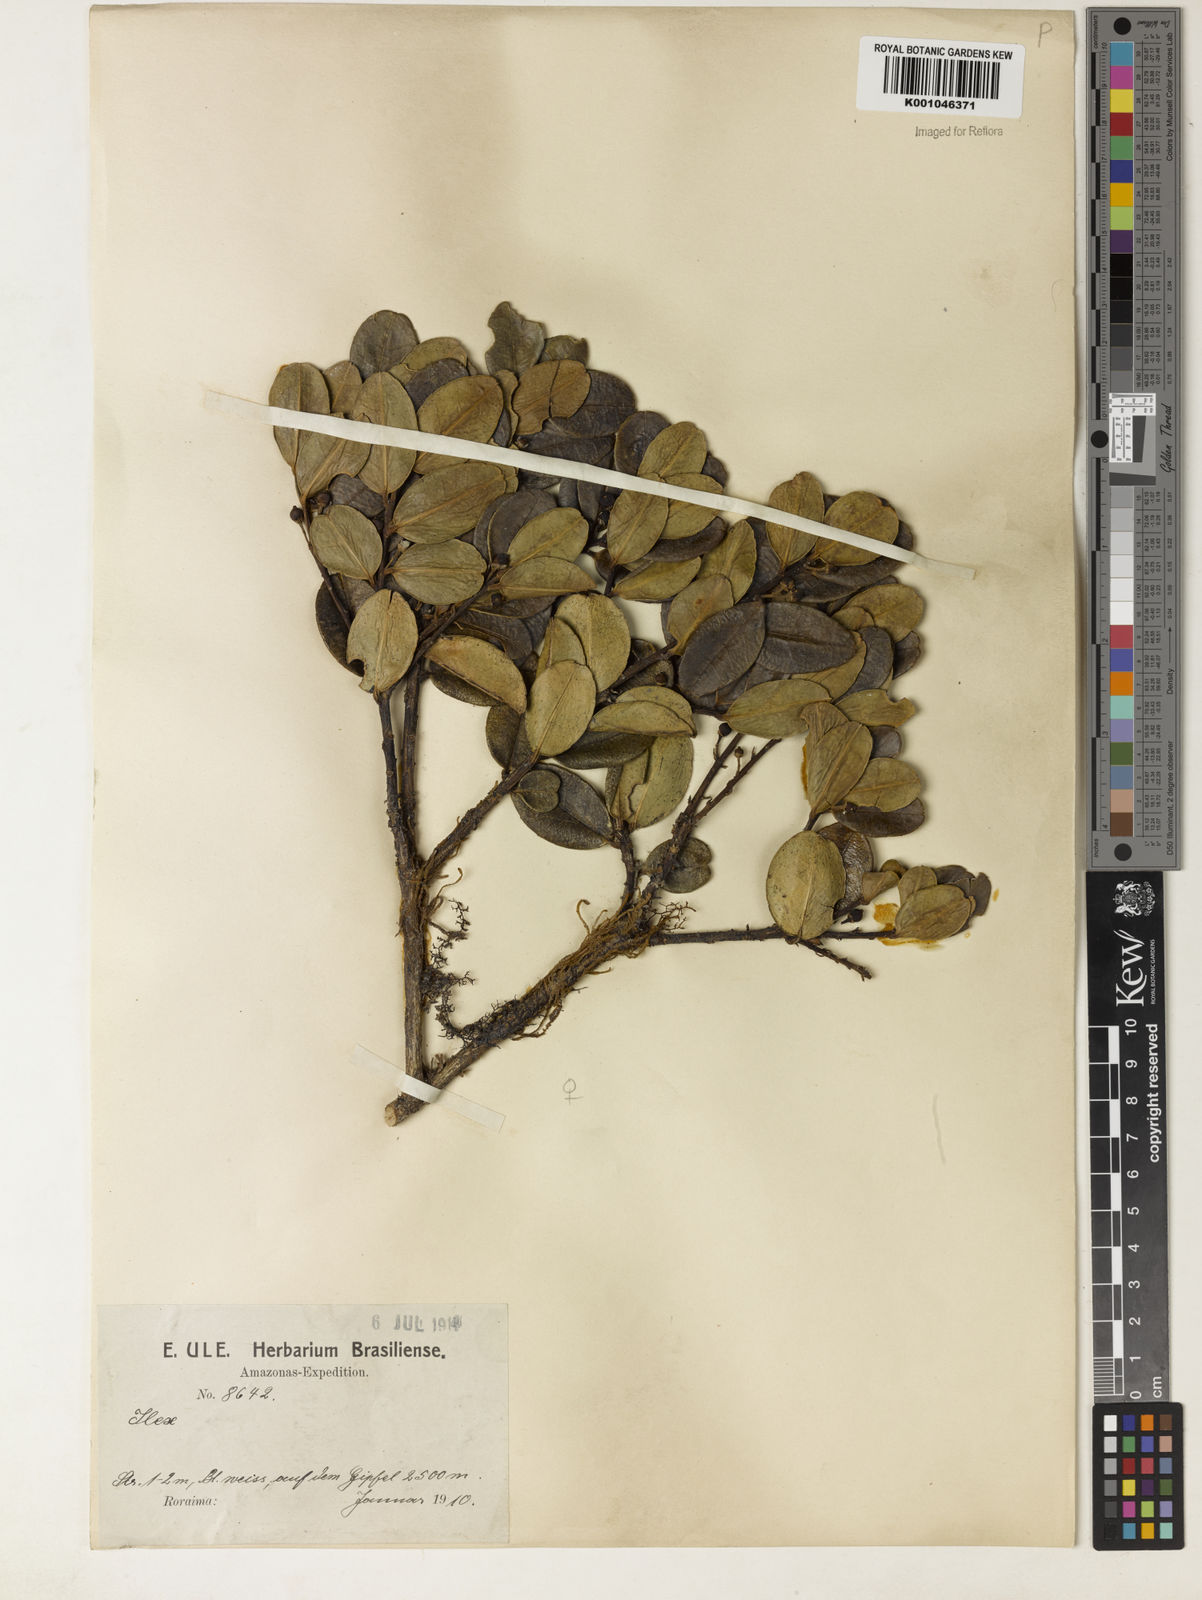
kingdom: Plantae
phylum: Tracheophyta
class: Magnoliopsida
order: Aquifoliales
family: Aquifoliaceae
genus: Ilex
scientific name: Ilex
